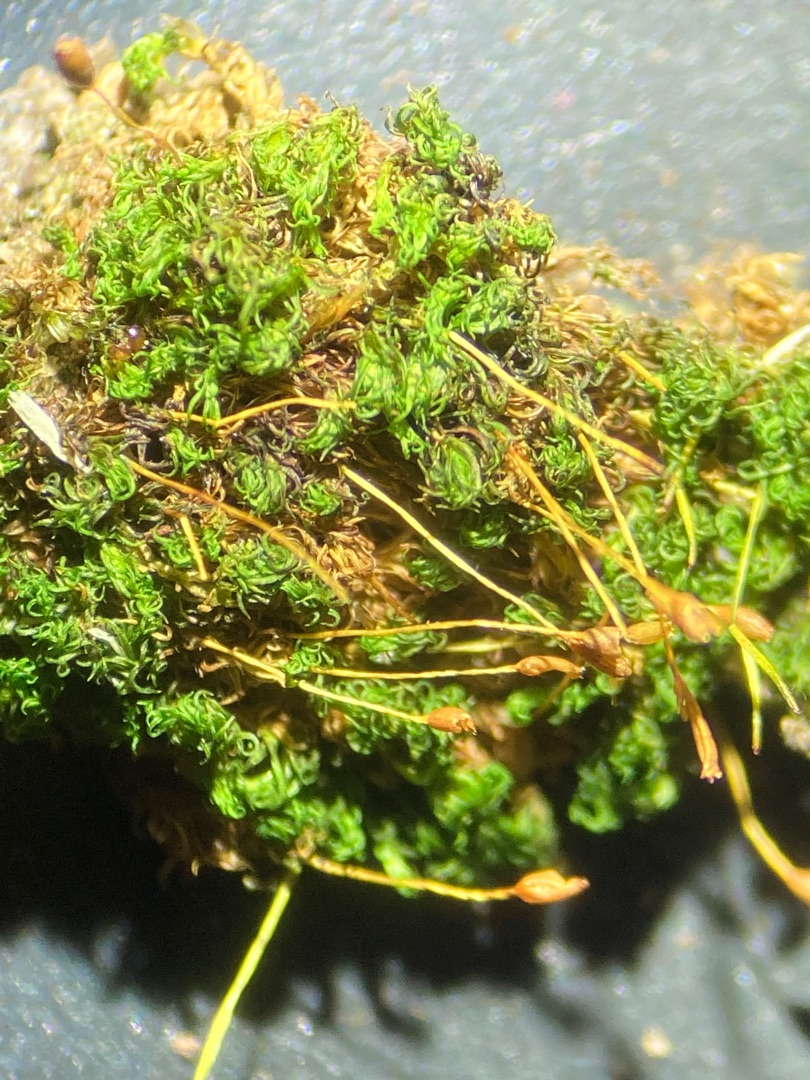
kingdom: Plantae
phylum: Bryophyta
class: Bryopsida
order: Dicranales
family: Rhabdoweisiaceae
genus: Dicranoweisia
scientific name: Dicranoweisia cirrata
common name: Almindelig krøltuemos
